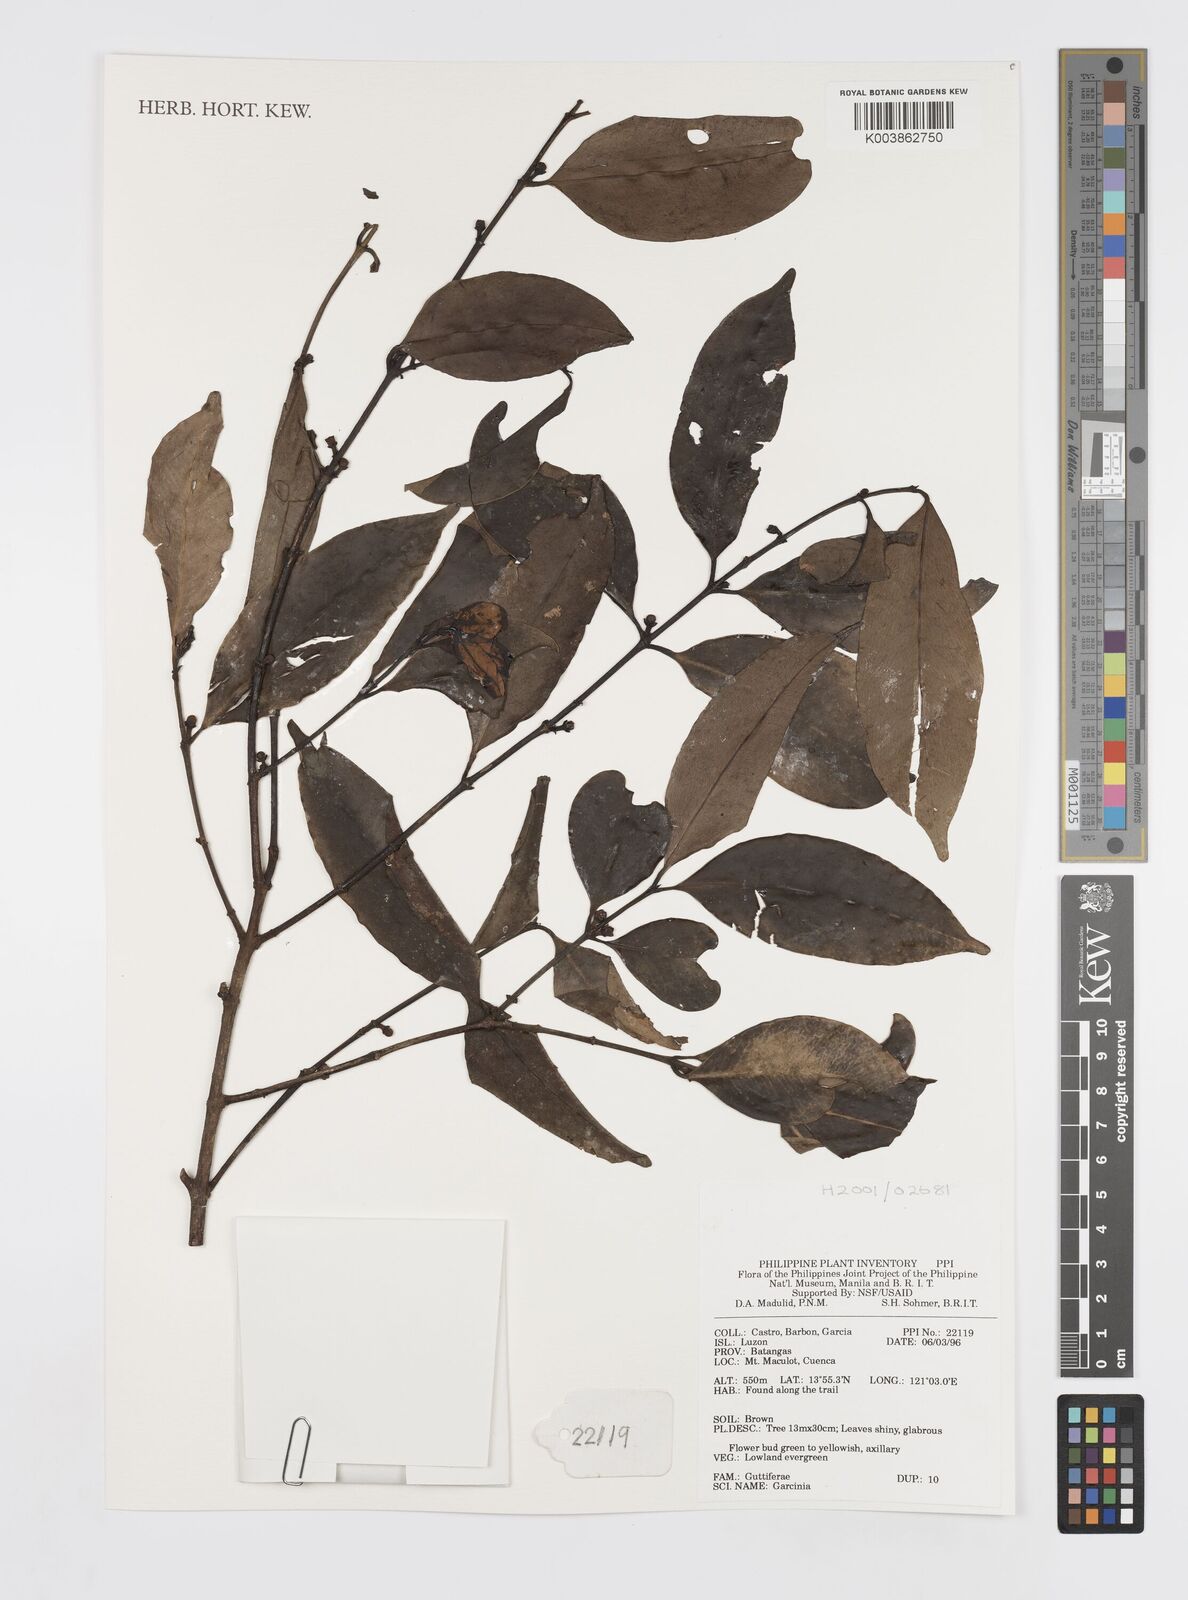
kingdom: Plantae
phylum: Tracheophyta
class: Magnoliopsida
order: Malpighiales
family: Clusiaceae
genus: Garcinia
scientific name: Garcinia
